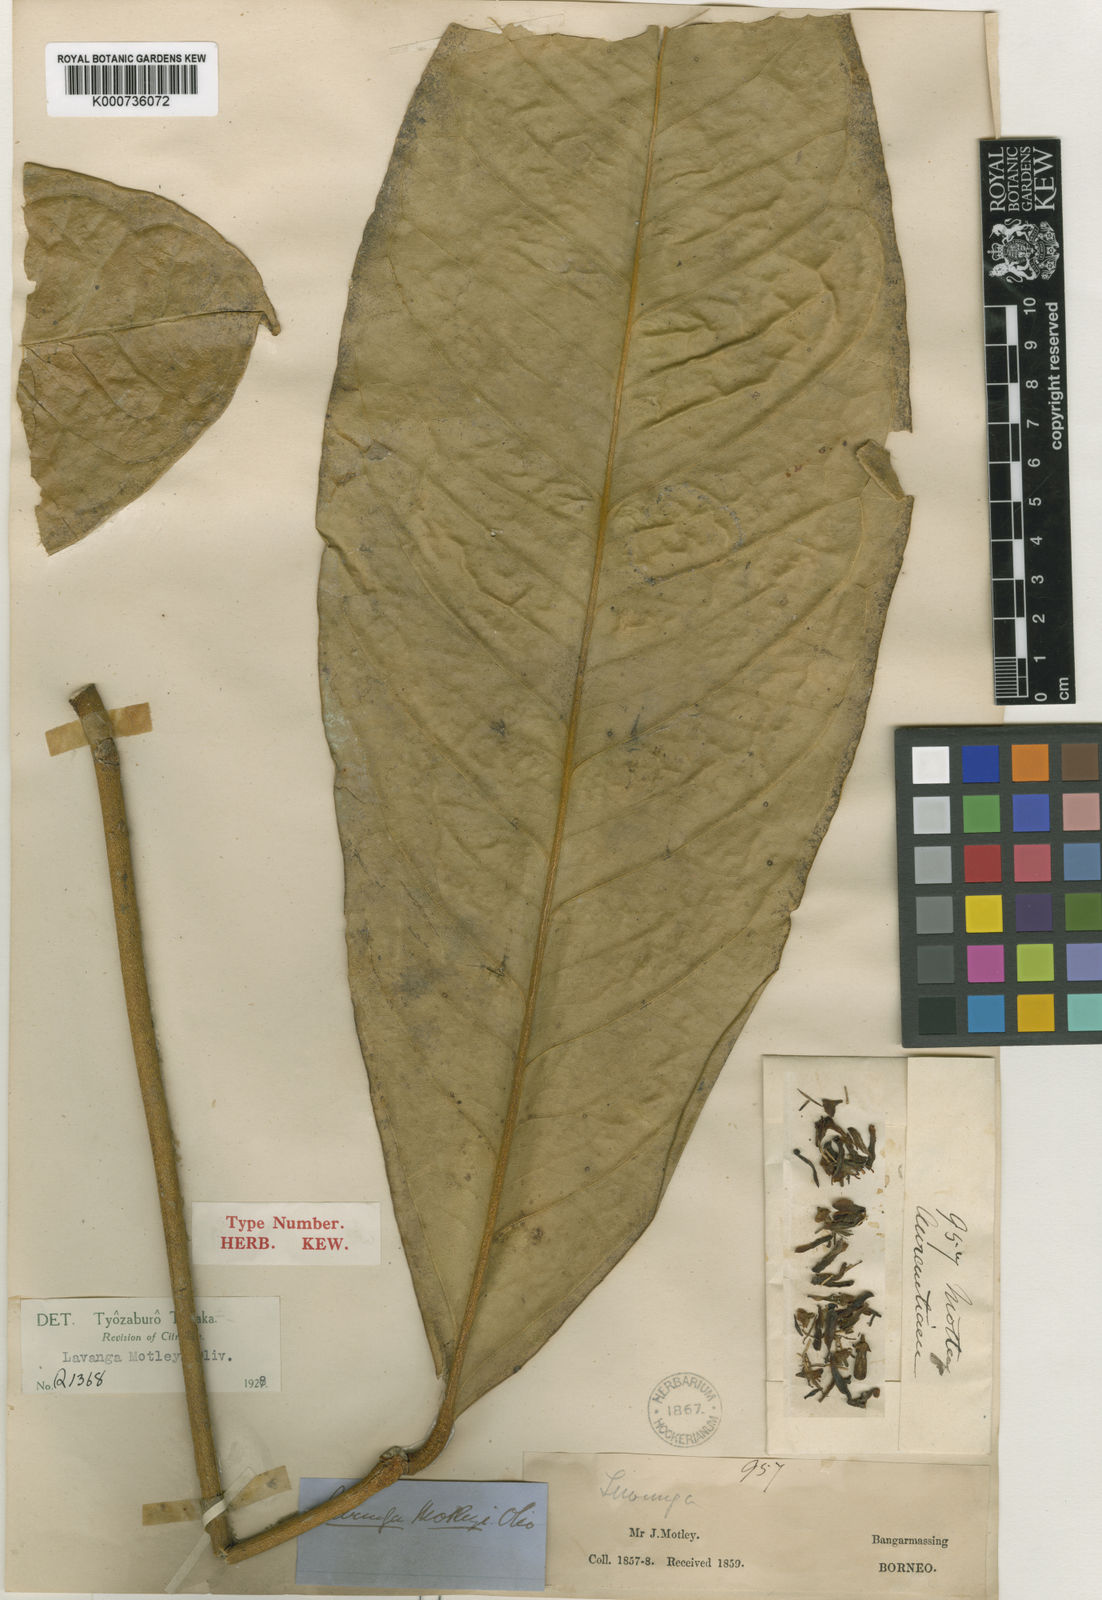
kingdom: Plantae
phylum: Tracheophyta
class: Magnoliopsida
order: Sapindales
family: Rutaceae
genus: Luvunga
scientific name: Luvunga scandens
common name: Indian luvunga
